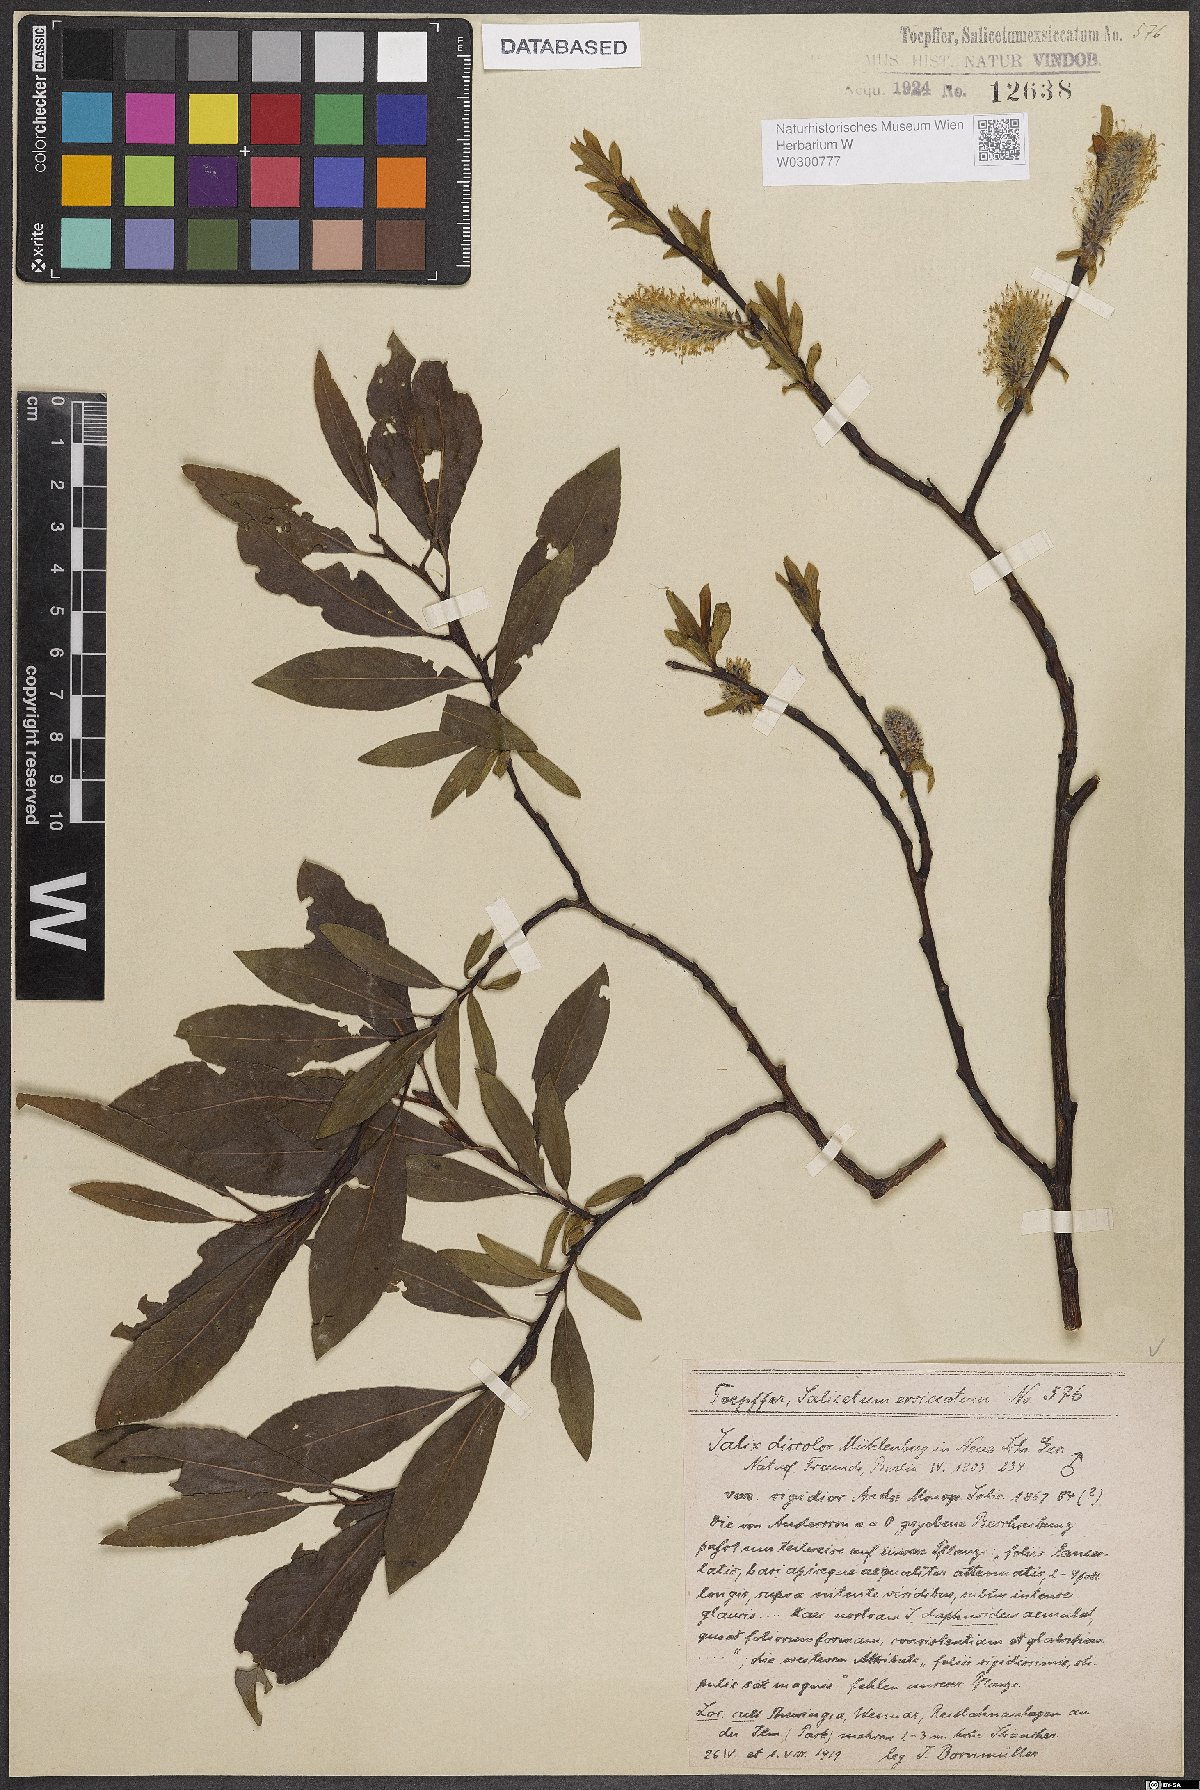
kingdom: Plantae
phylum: Tracheophyta
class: Magnoliopsida
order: Malpighiales
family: Salicaceae
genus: Salix
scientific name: Salix discolor
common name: Glaucous willow
